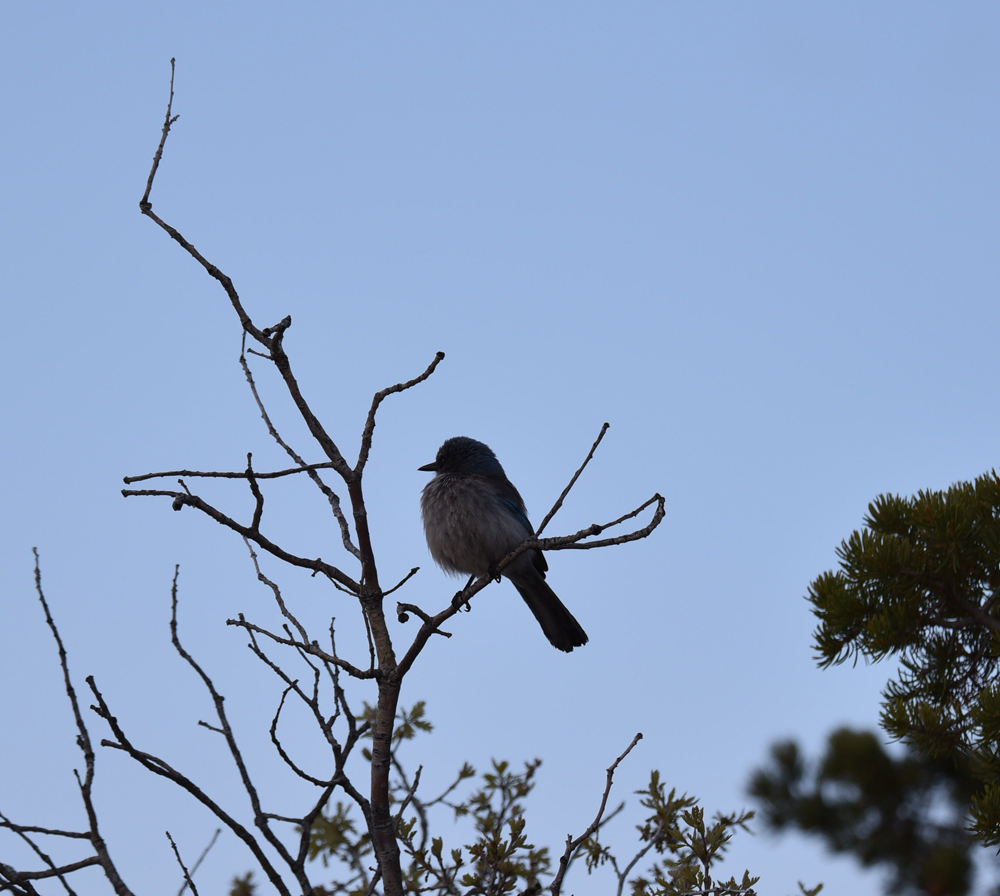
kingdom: Animalia
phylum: Chordata
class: Aves
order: Passeriformes
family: Corvidae
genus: Aphelocoma
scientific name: Aphelocoma californica
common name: California scrub-jay
